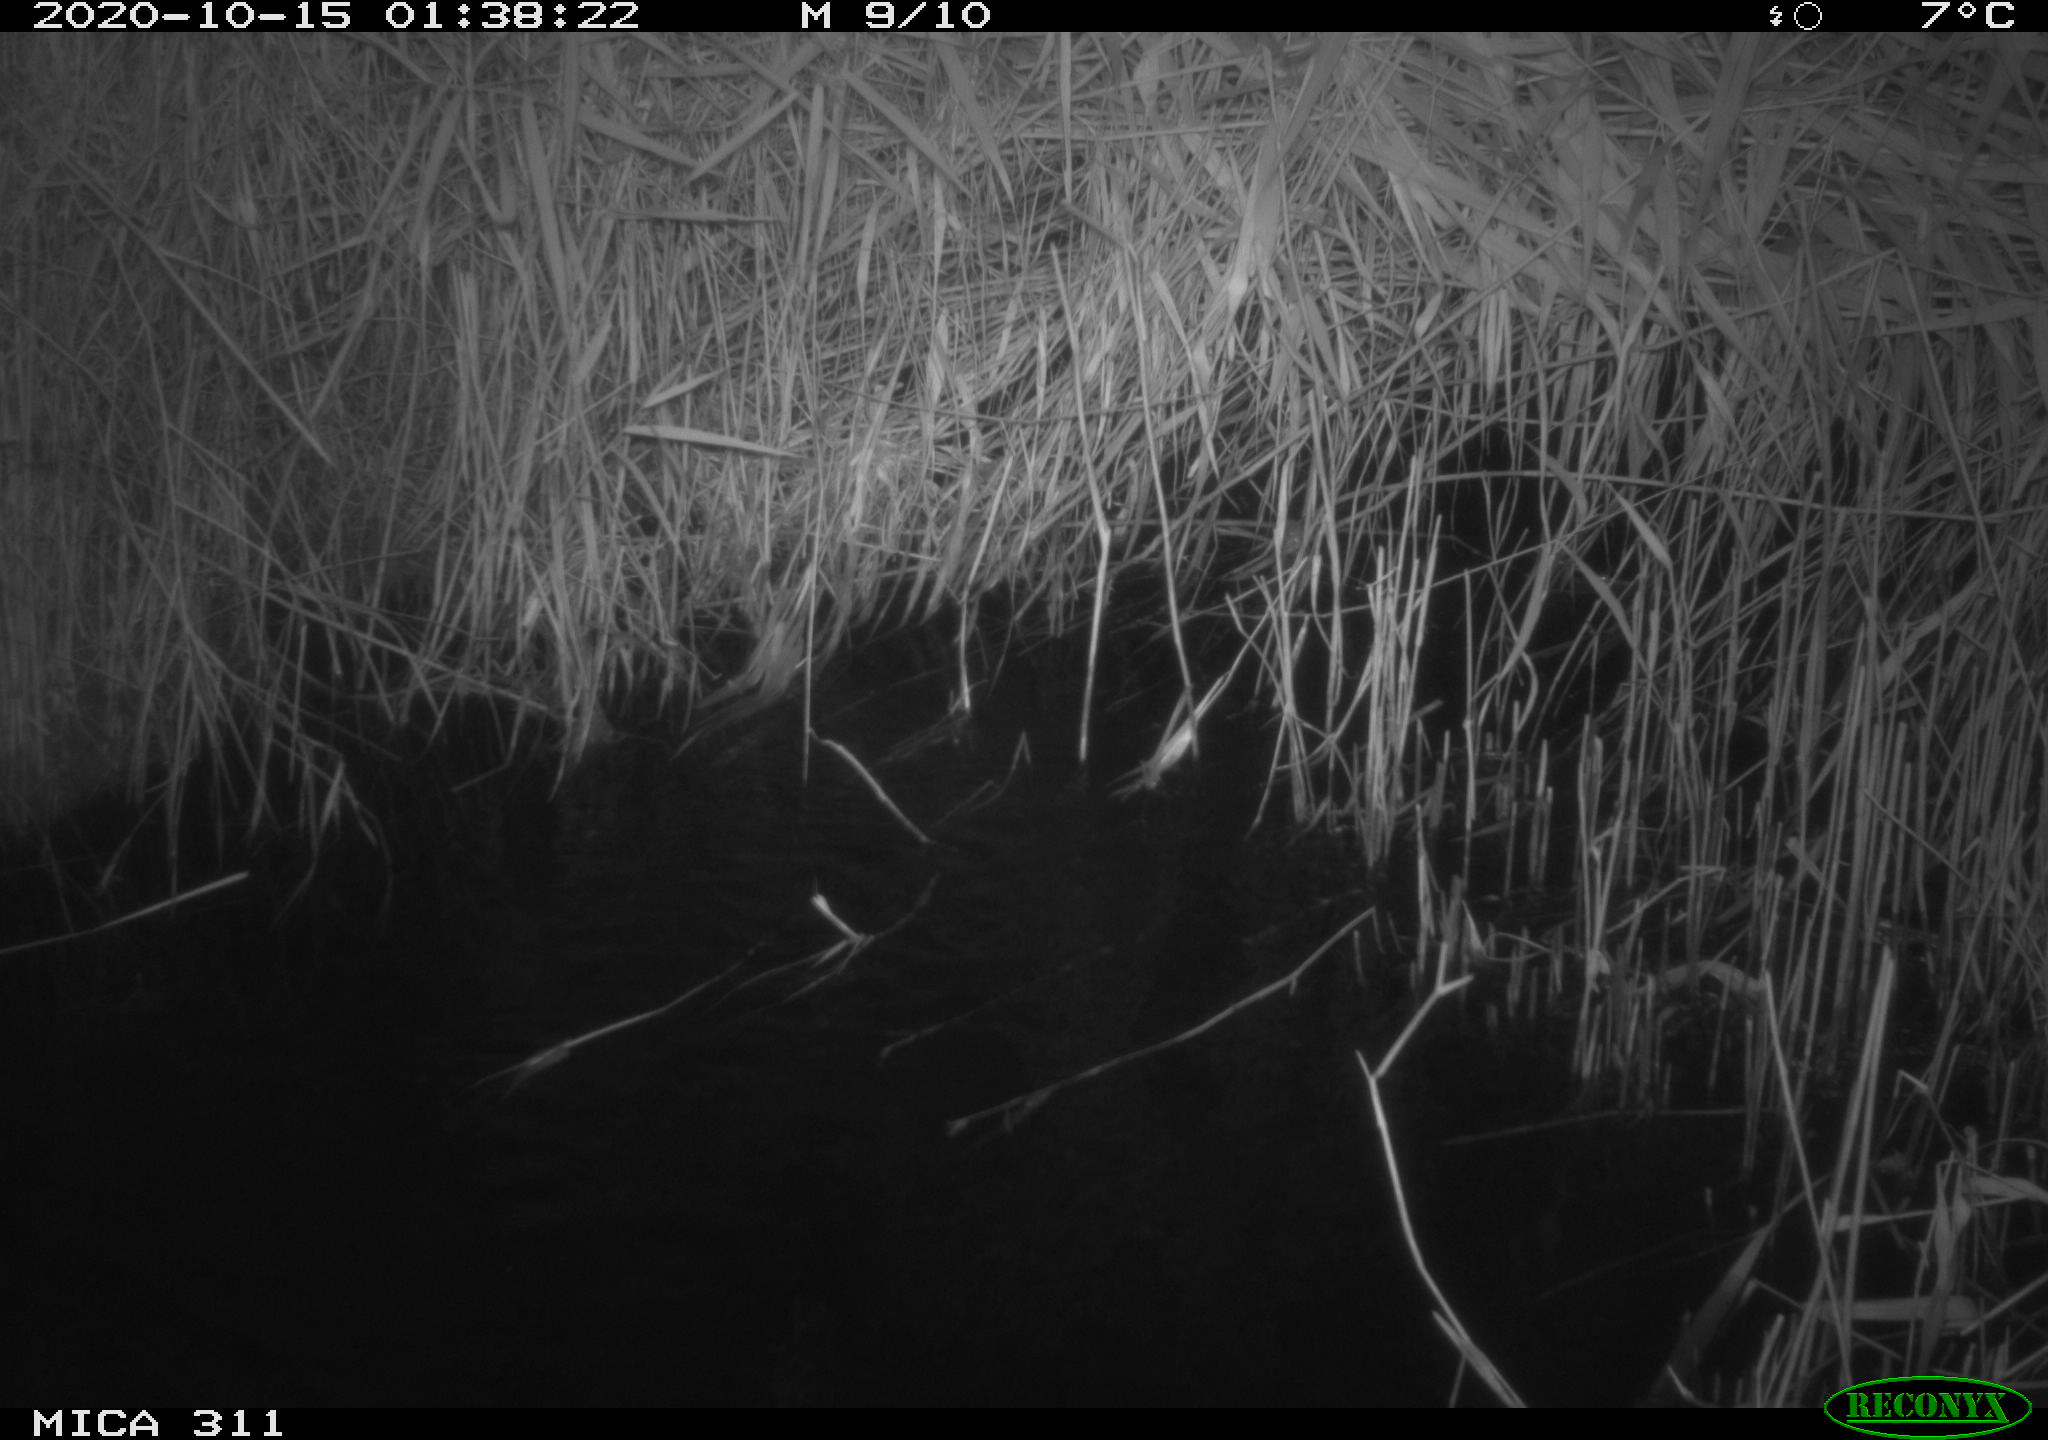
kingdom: Animalia
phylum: Chordata
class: Mammalia
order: Rodentia
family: Muridae
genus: Rattus
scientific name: Rattus norvegicus
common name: Brown rat
